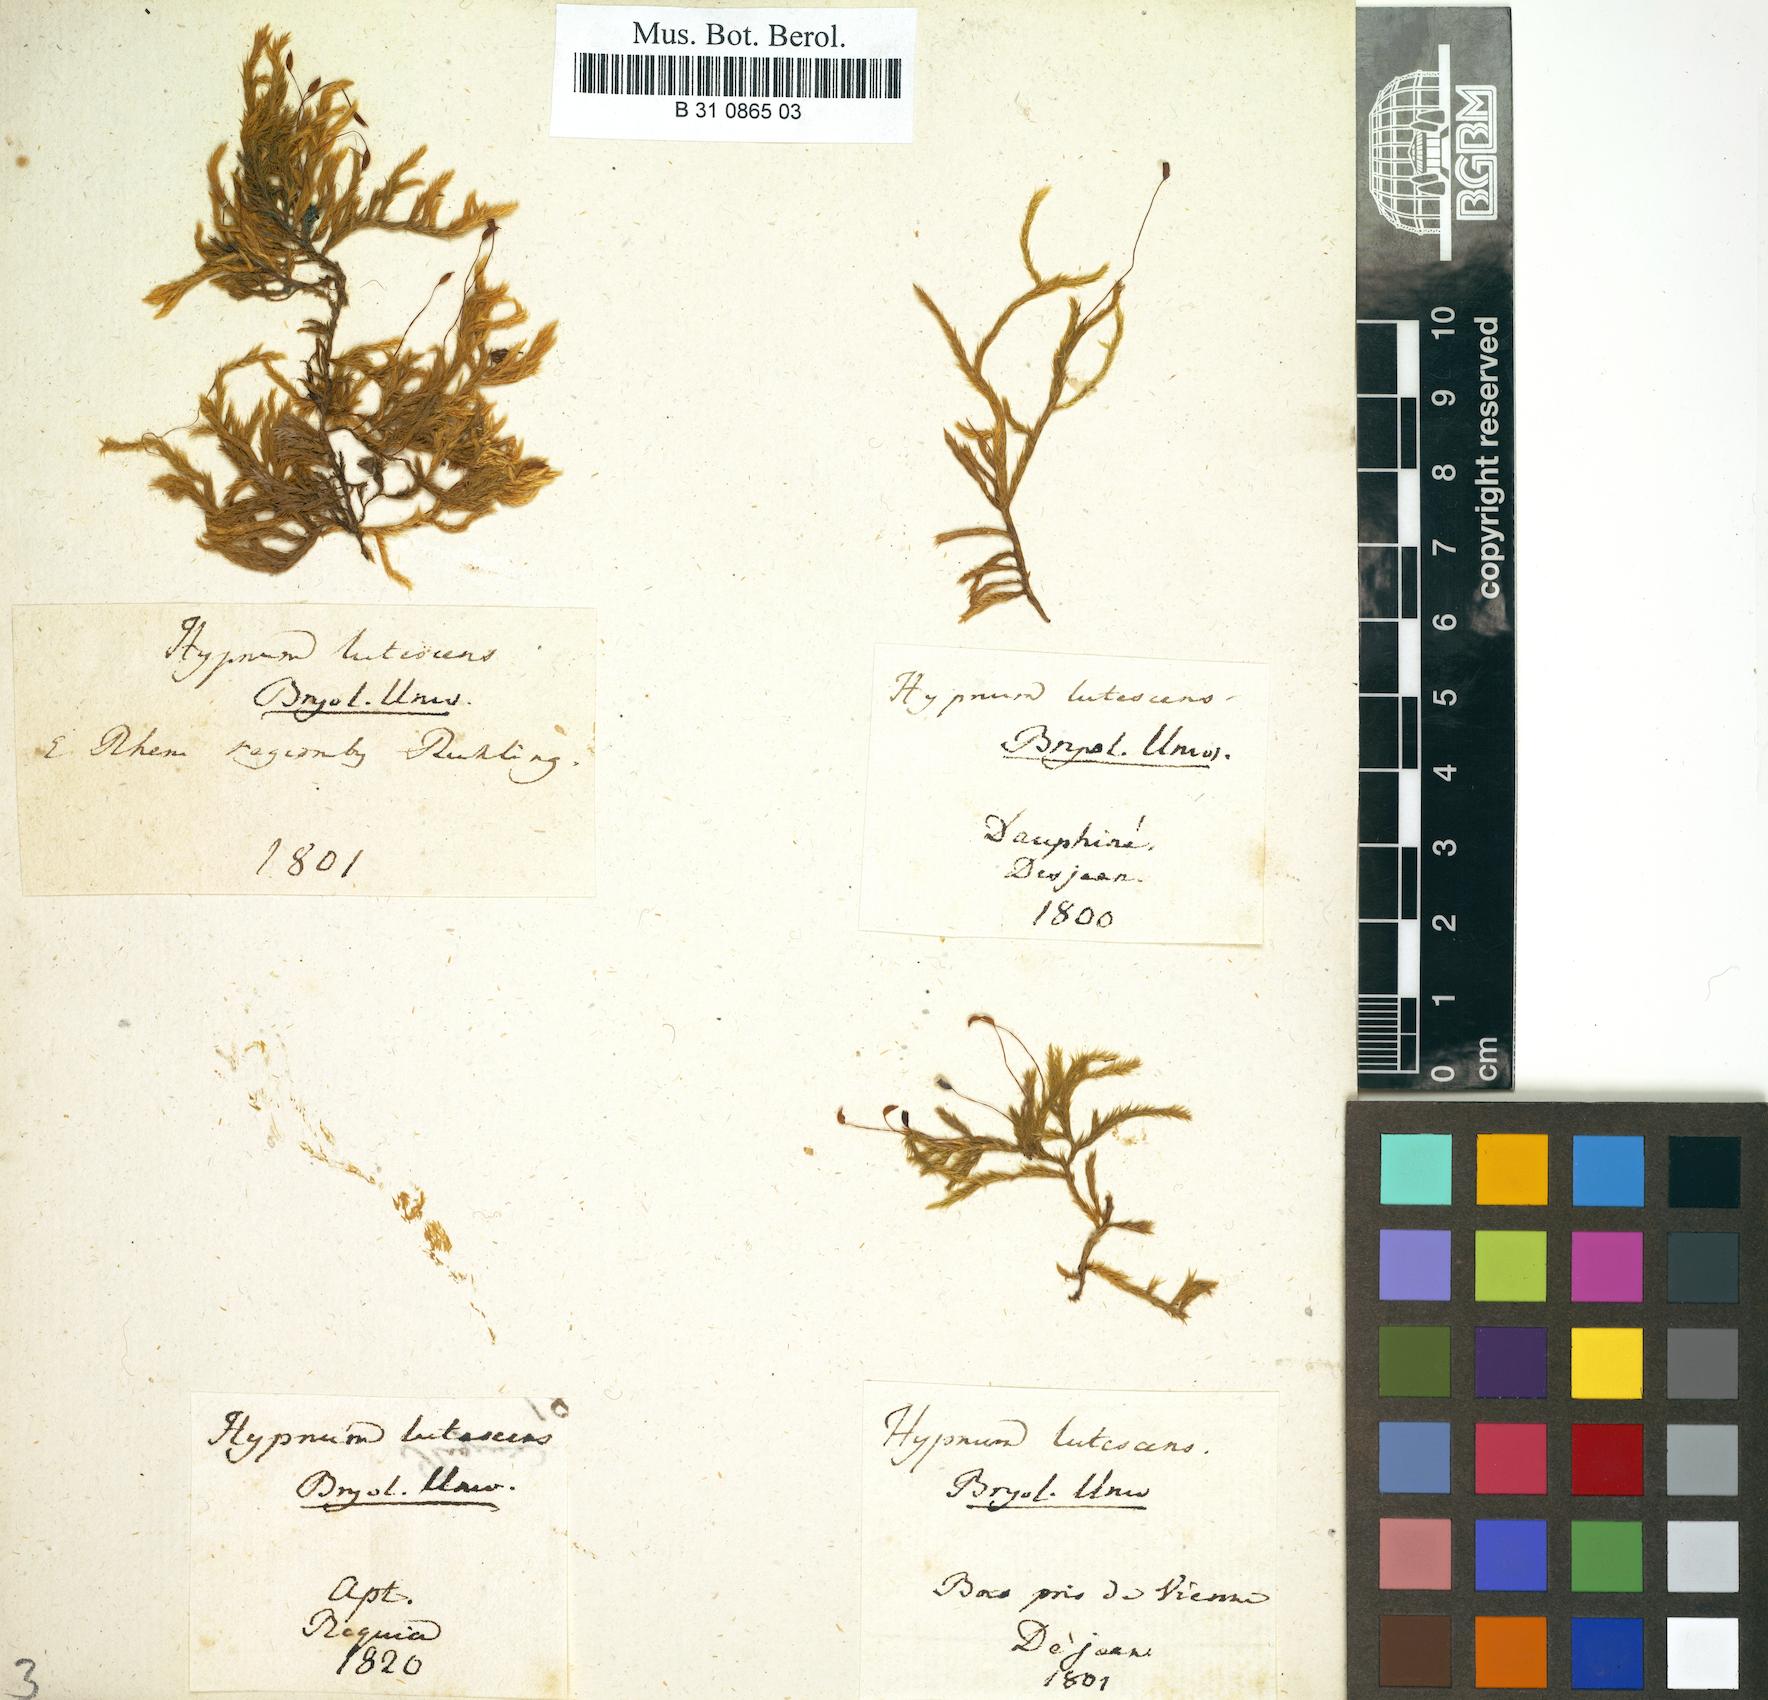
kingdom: Plantae
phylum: Bryophyta
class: Bryopsida
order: Hypnales
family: Brachytheciaceae
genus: Homalothecium
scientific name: Homalothecium lutescens
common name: Yellow feather-moss
